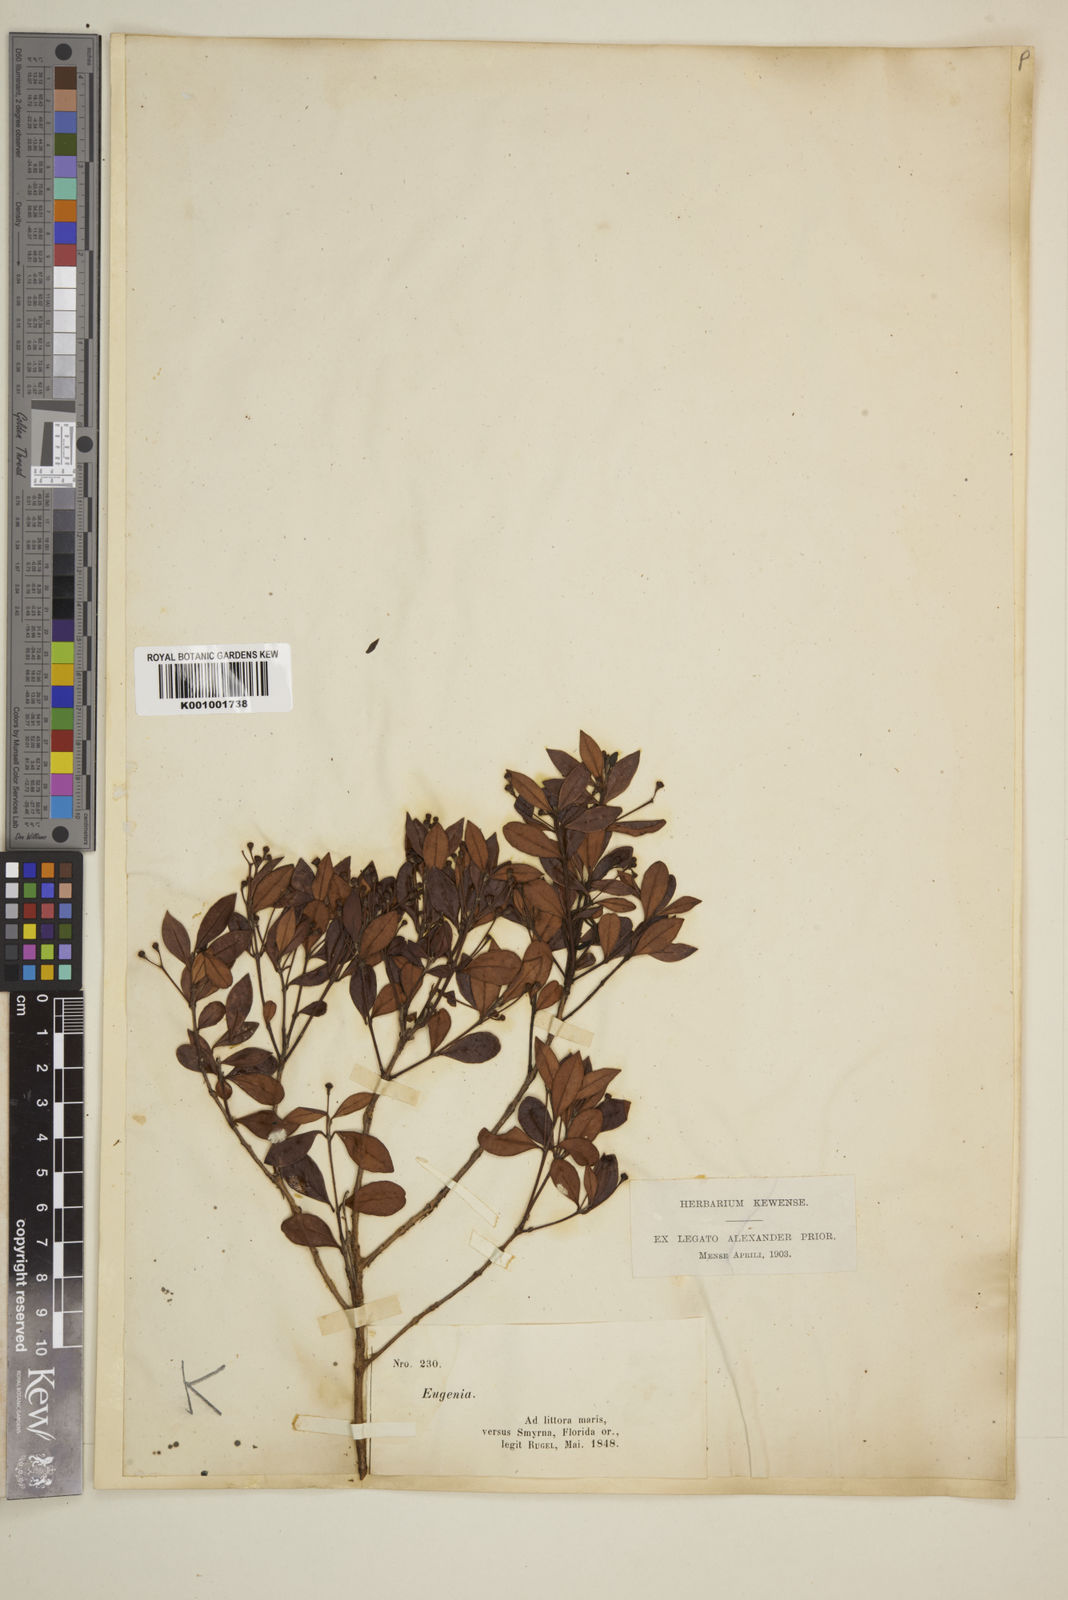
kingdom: Plantae
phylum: Tracheophyta
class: Magnoliopsida
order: Myrtales
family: Myrtaceae
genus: Eugenia
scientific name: Eugenia
